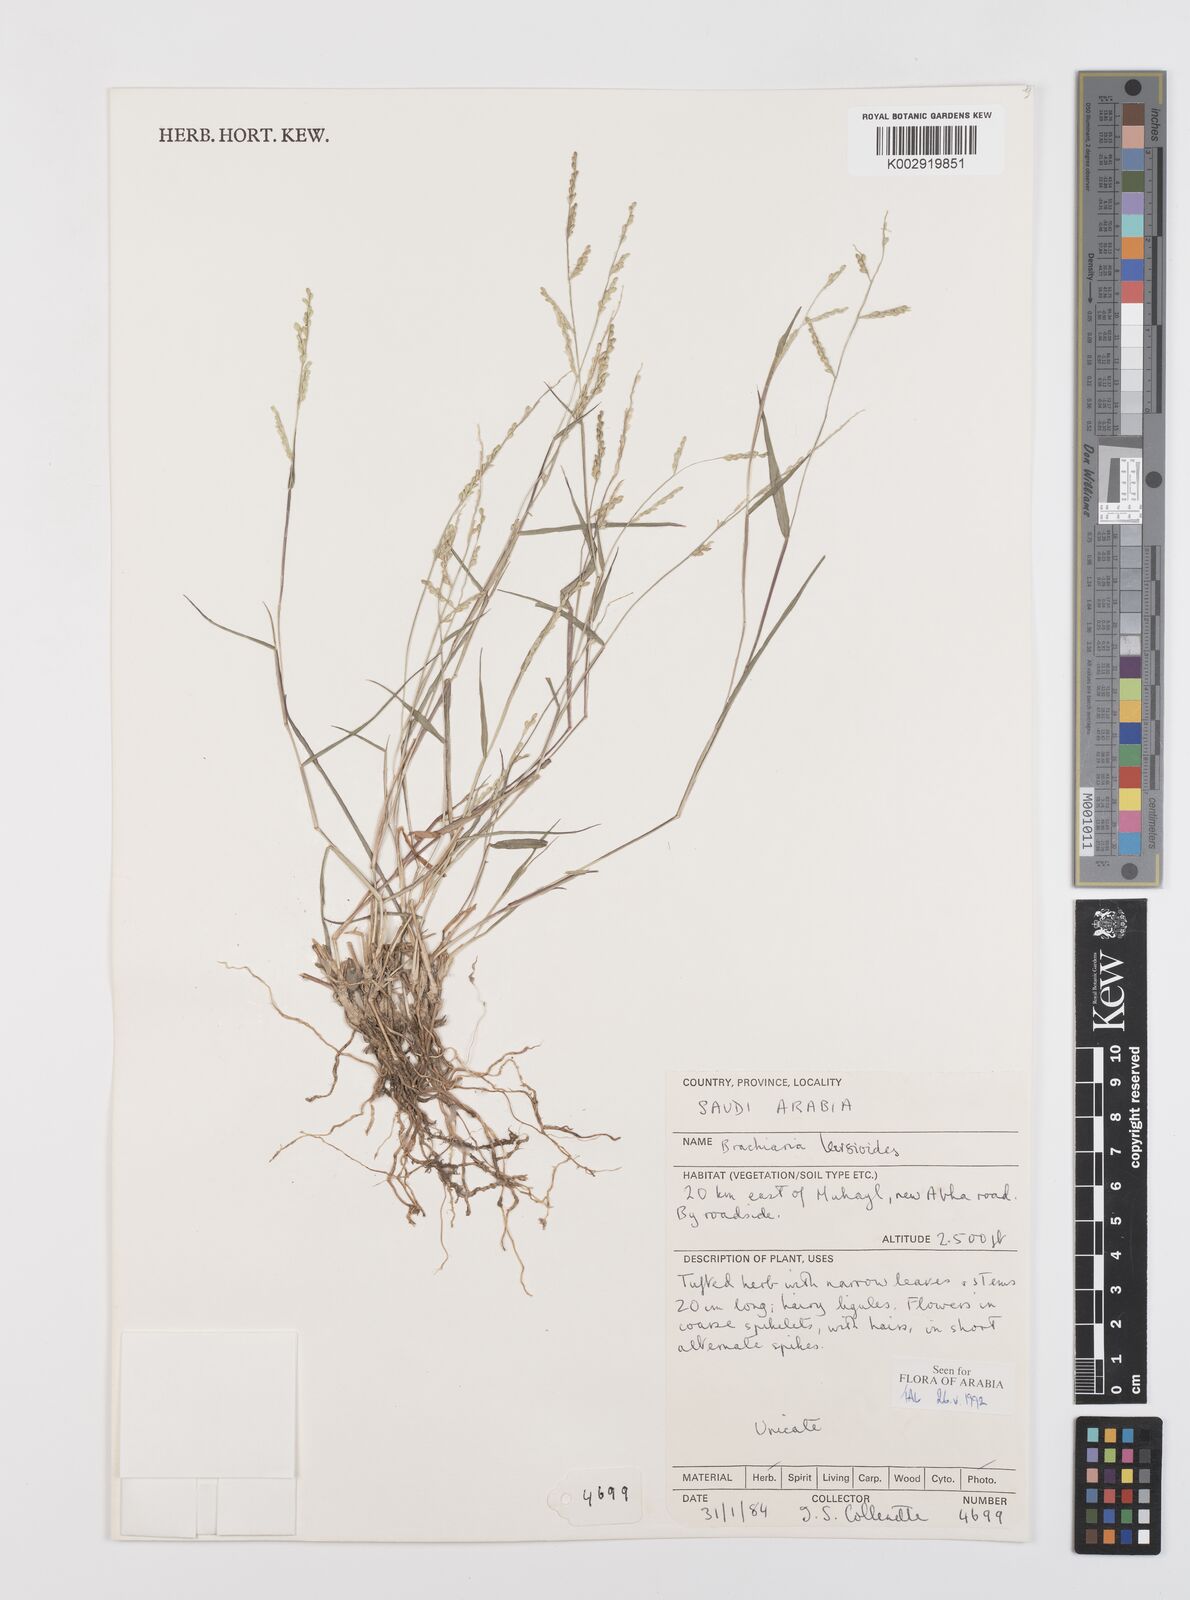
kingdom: Plantae
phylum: Tracheophyta
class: Liliopsida
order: Poales
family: Poaceae
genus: Urochloa
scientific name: Urochloa leersioides
